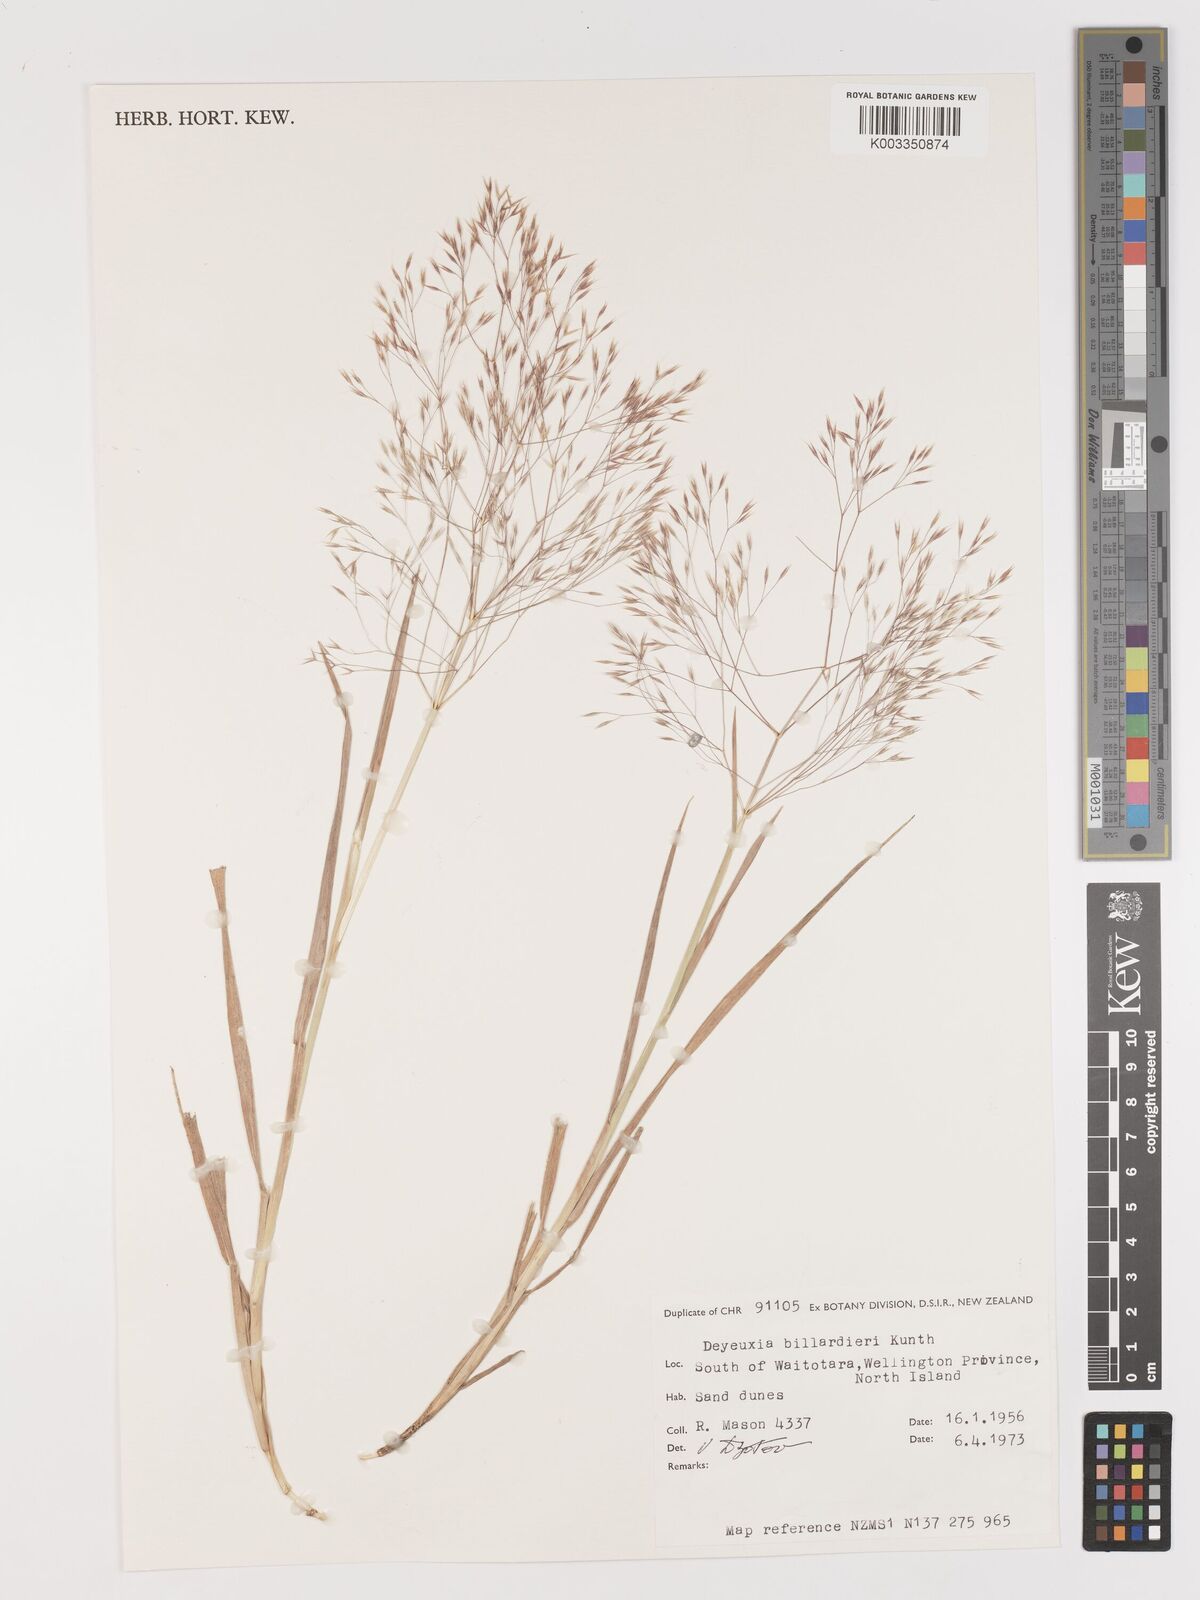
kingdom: Plantae
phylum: Tracheophyta
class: Liliopsida
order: Poales
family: Poaceae
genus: Lachnagrostis
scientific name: Lachnagrostis billardierei
